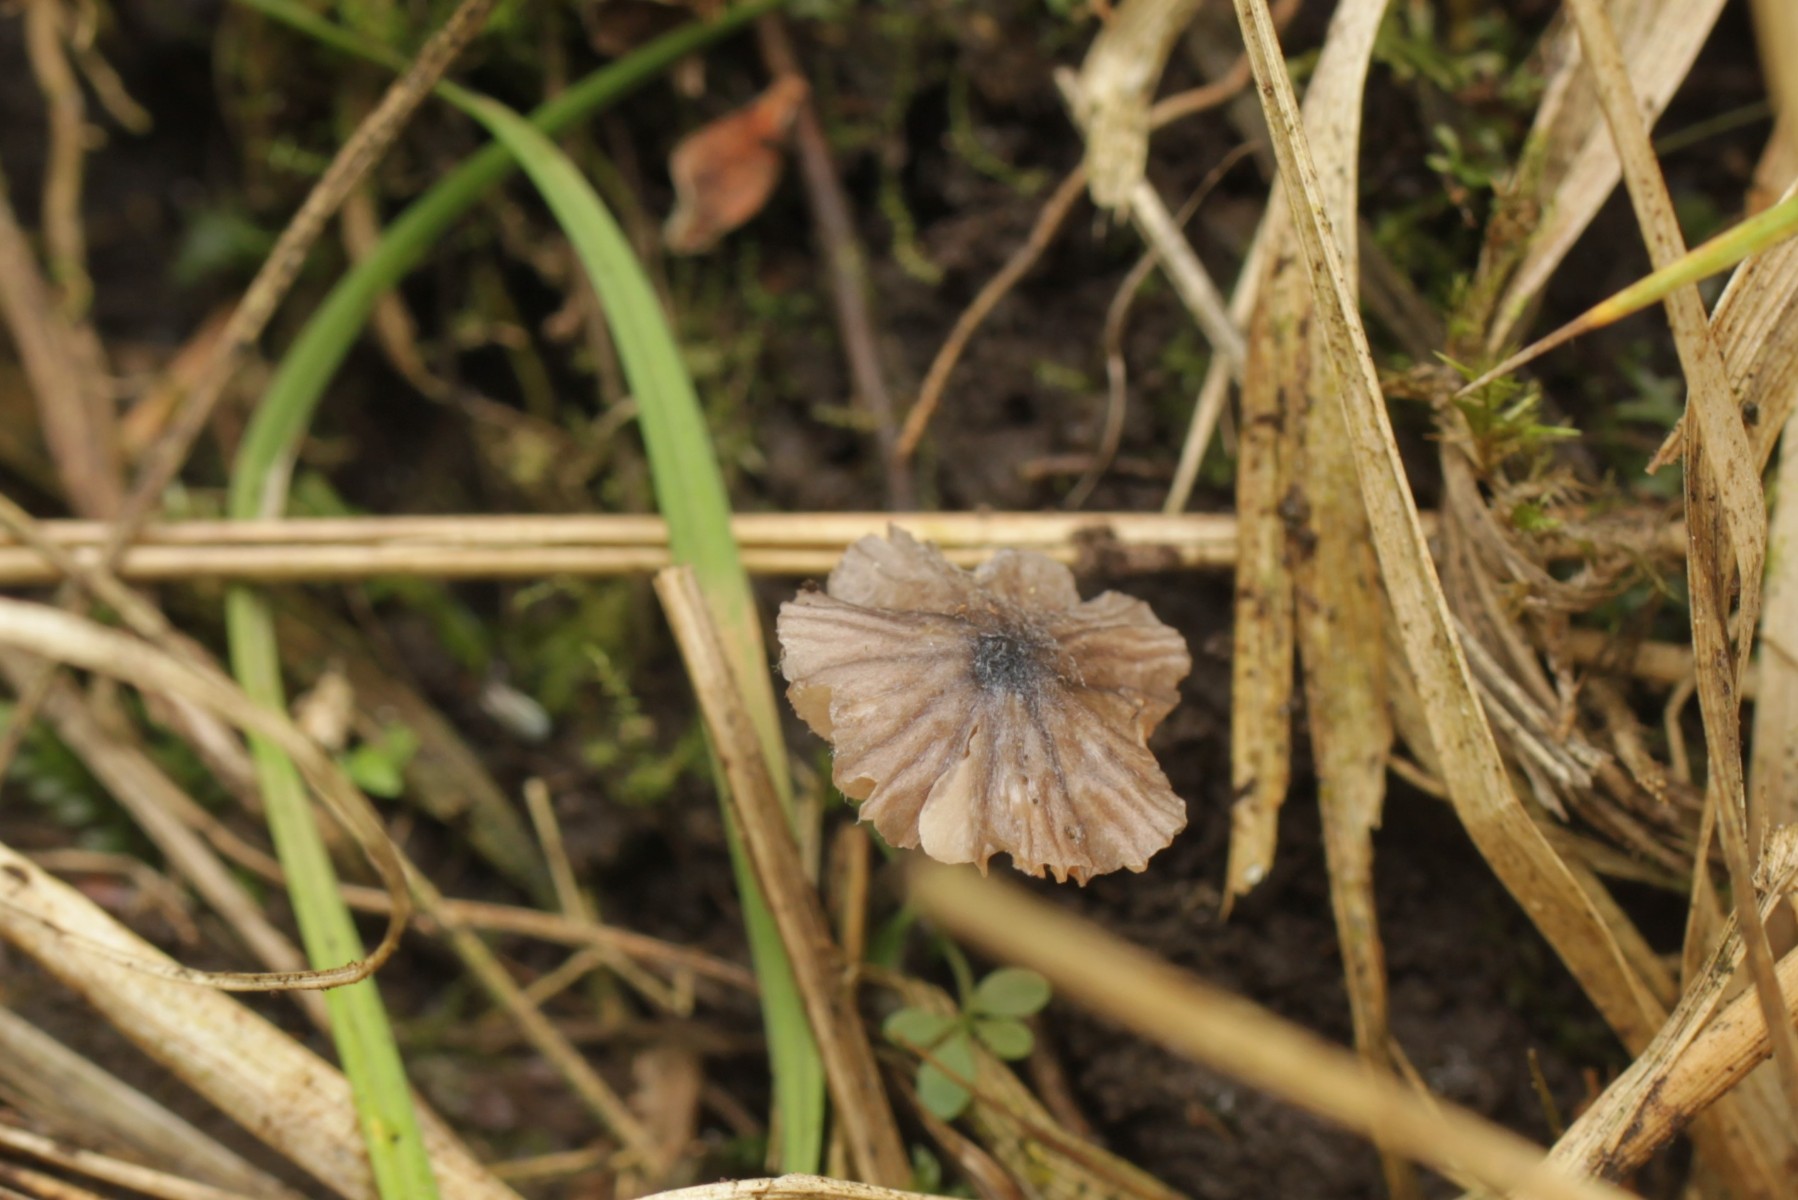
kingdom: Fungi
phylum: Basidiomycota
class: Agaricomycetes
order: Agaricales
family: Entolomataceae
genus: Entoloma
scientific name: Entoloma
